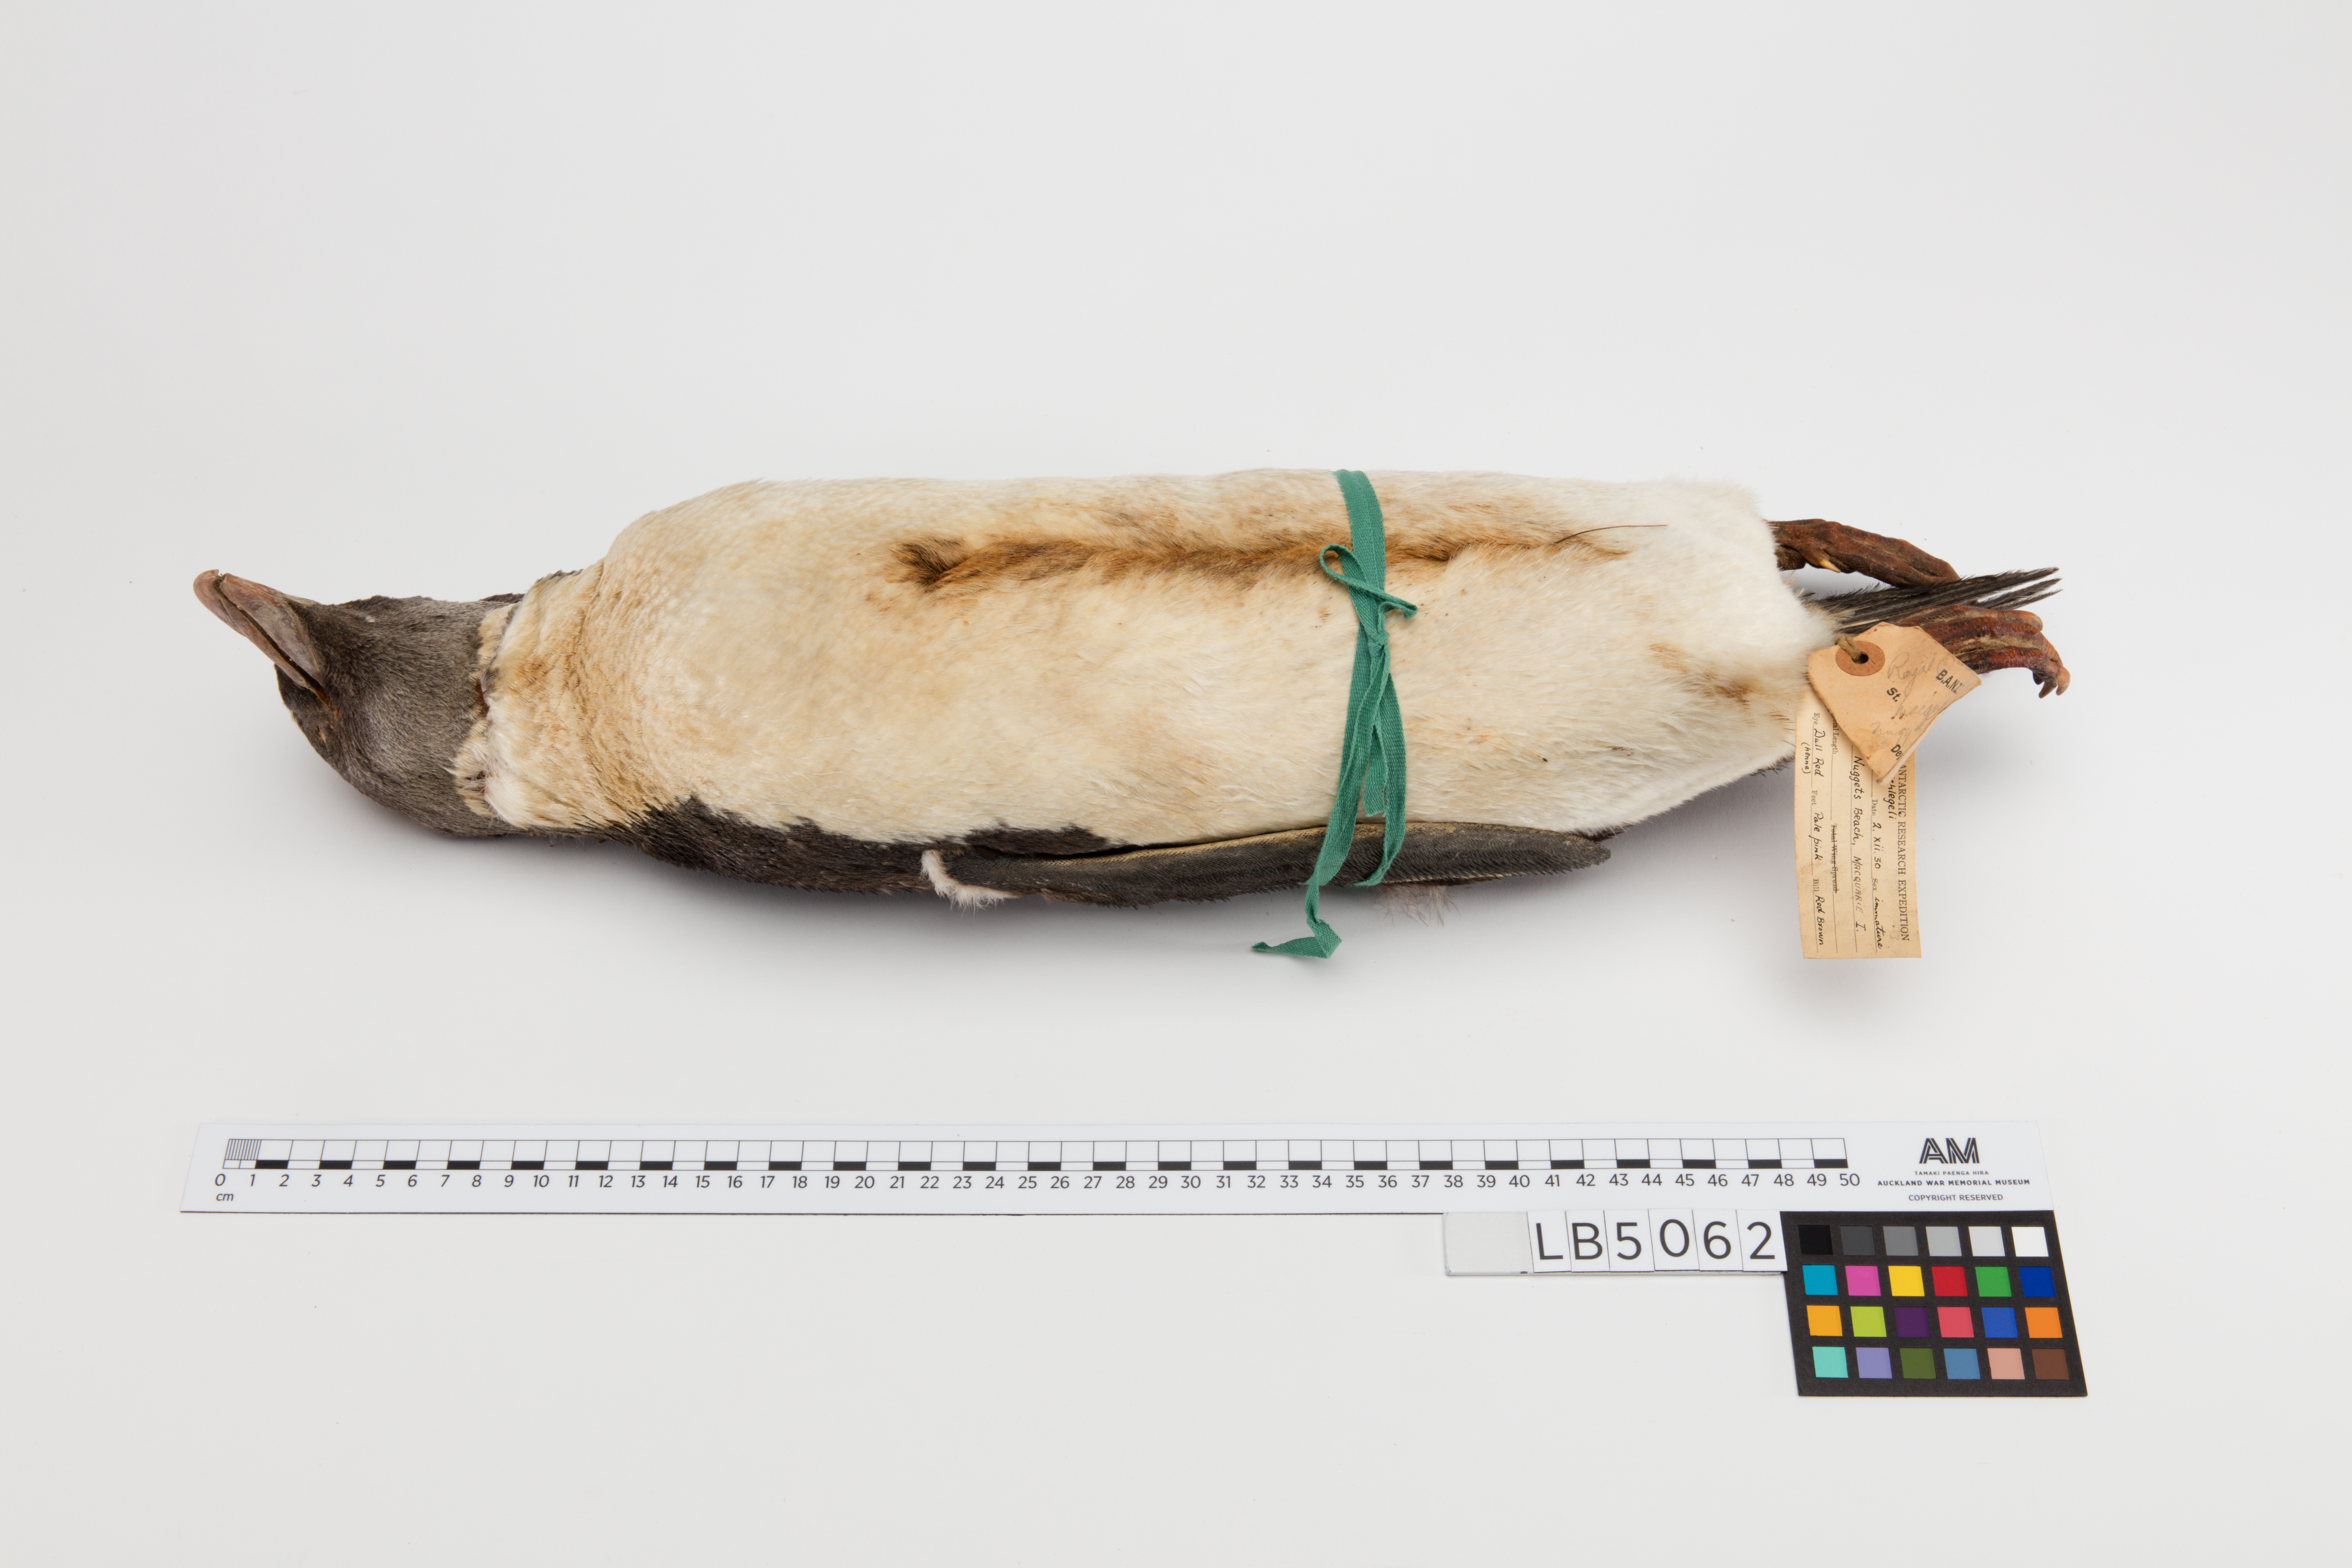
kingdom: Animalia
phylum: Chordata
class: Aves
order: Sphenisciformes
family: Spheniscidae
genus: Eudyptes
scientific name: Eudyptes chrysolophus
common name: Macaroni penguin
